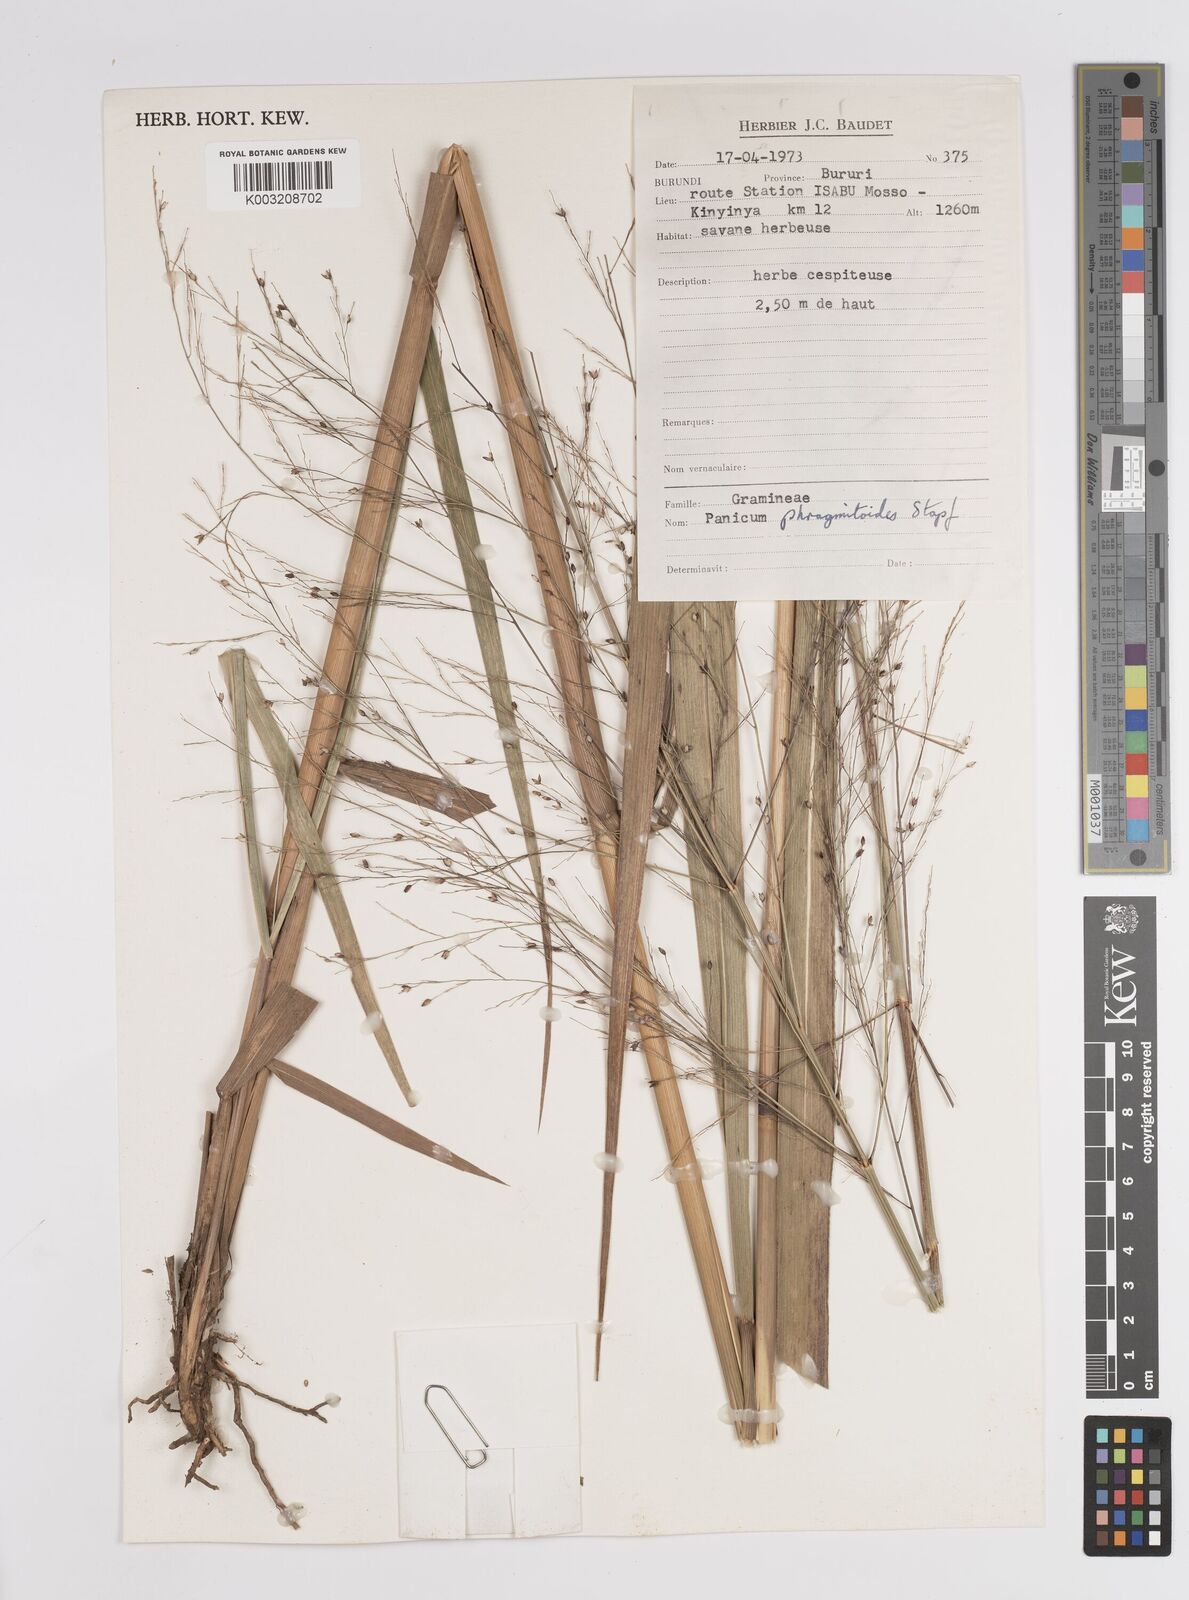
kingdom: Plantae
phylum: Tracheophyta
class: Liliopsida
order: Poales
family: Poaceae
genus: Panicum
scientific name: Panicum phragmitoides
